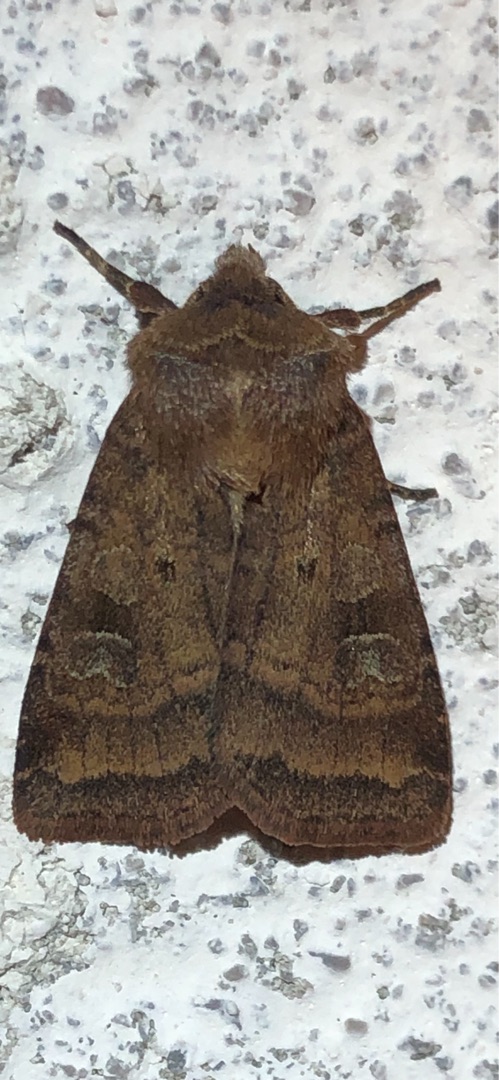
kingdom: Animalia
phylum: Arthropoda
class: Insecta
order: Lepidoptera
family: Noctuidae
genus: Diarsia
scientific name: Diarsia rubi
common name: Brombærtiggerugle
